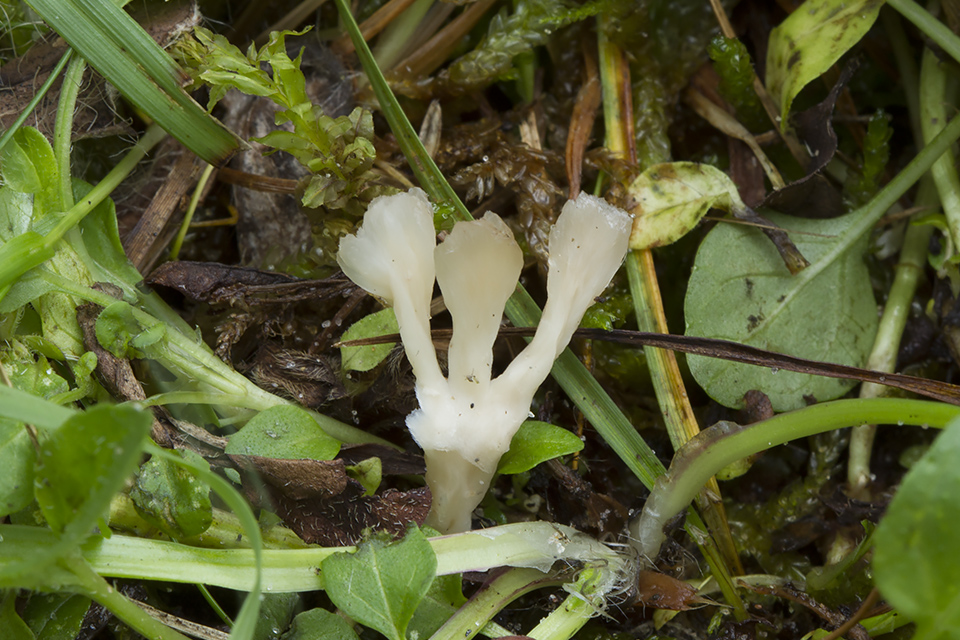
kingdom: Fungi
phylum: Basidiomycota
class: Agaricomycetes
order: Tremellodendropsidales
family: Tremellodendropsidaceae
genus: Tremellodendropsis
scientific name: Tremellodendropsis tuberosa
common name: bævrekølle
